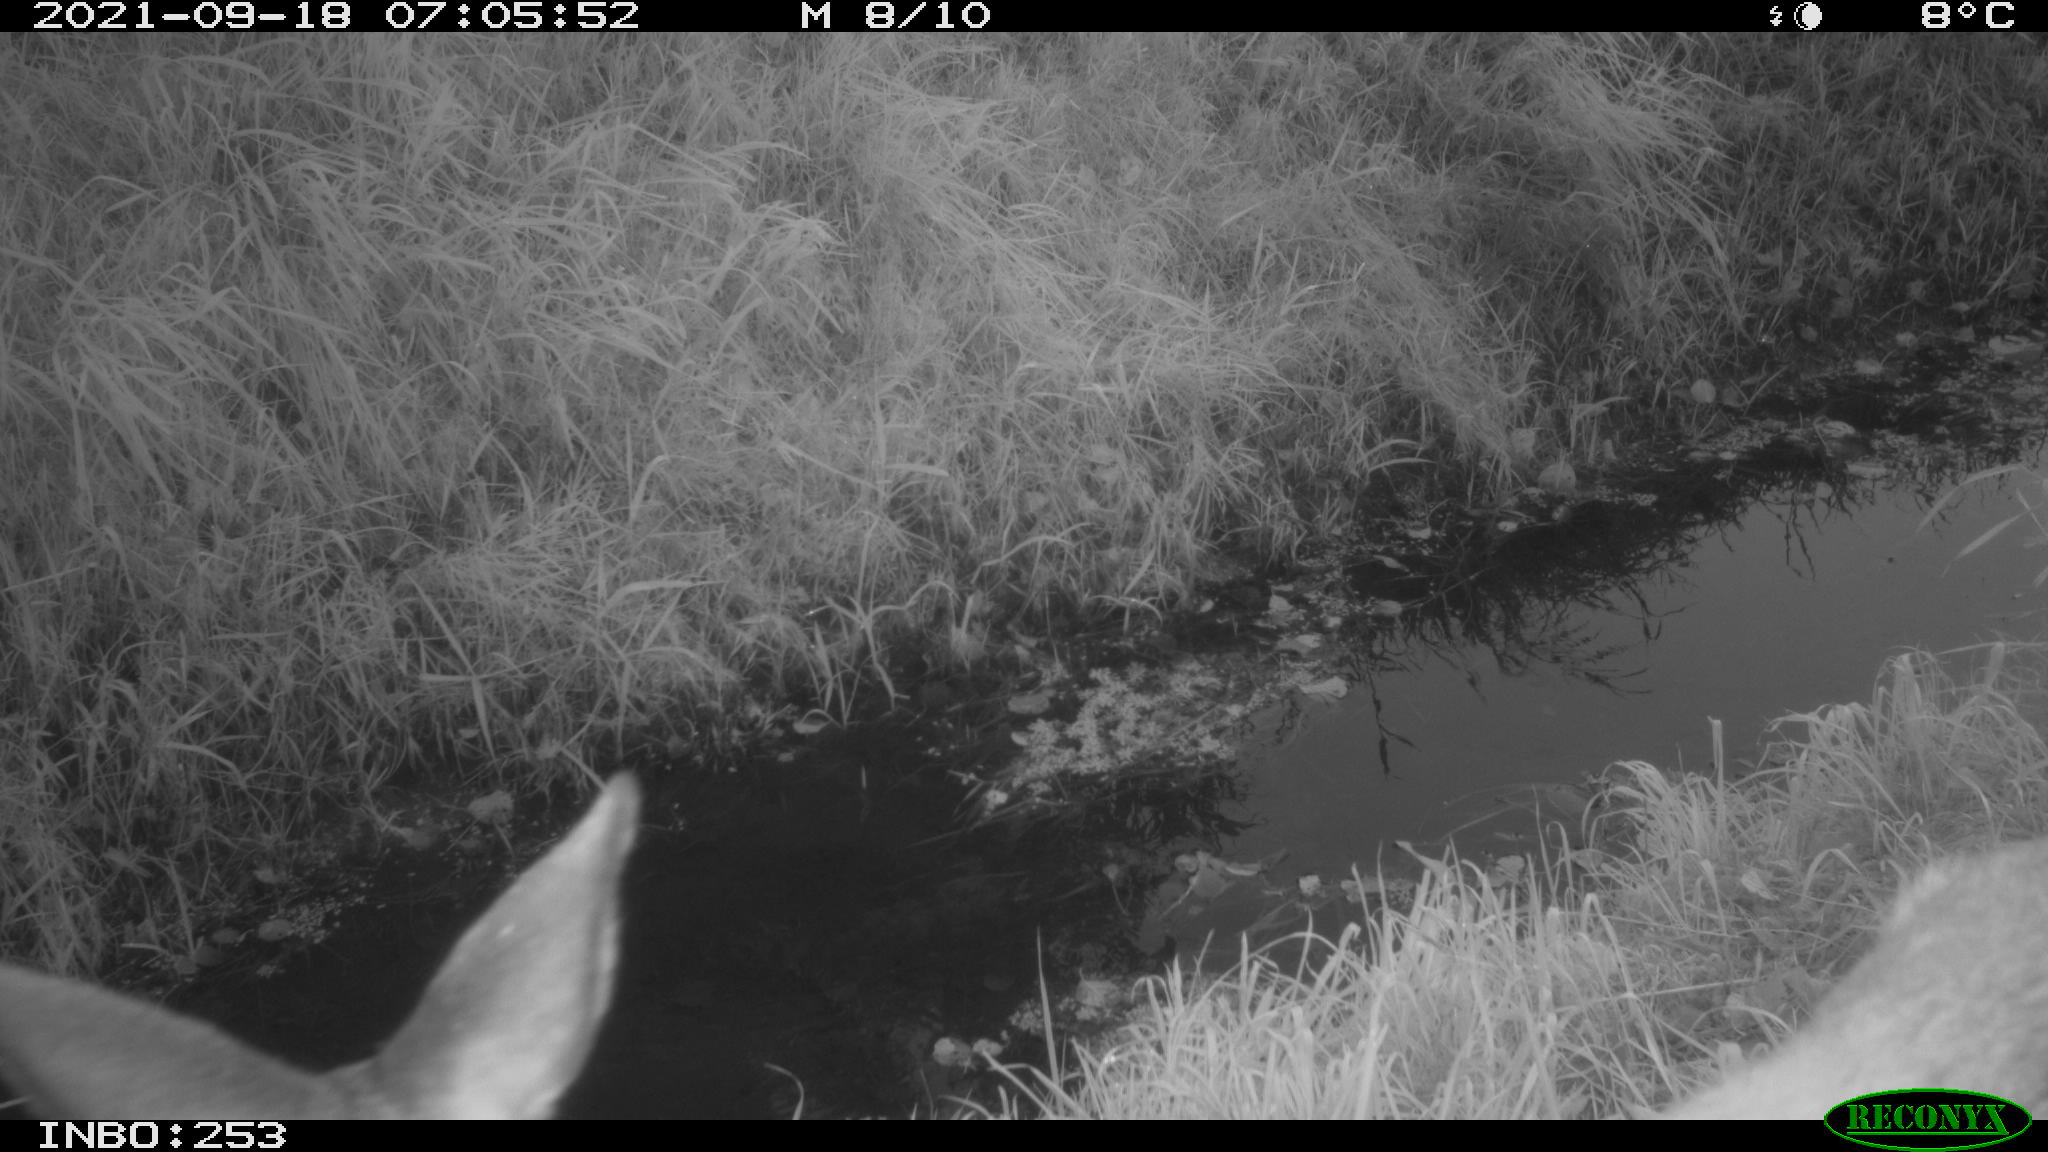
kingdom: Animalia
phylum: Chordata
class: Mammalia
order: Artiodactyla
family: Cervidae
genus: Capreolus
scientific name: Capreolus capreolus
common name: Western roe deer
